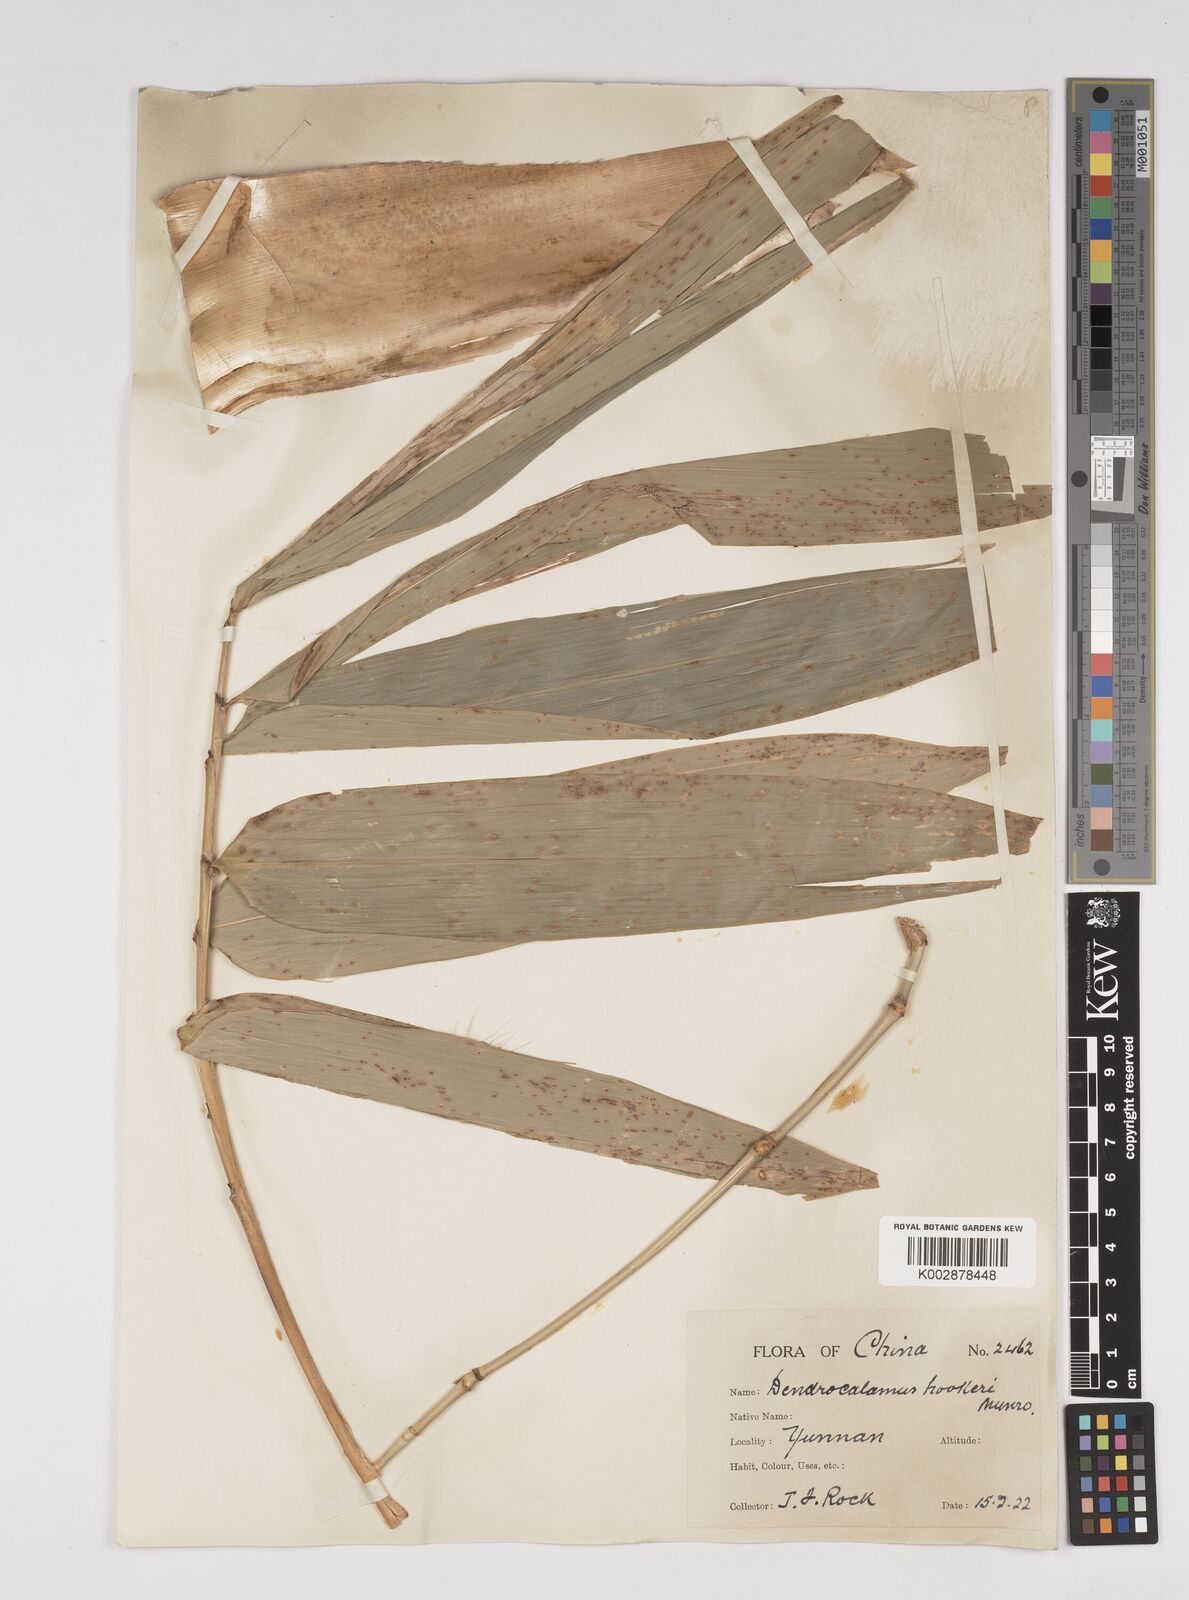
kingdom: Plantae
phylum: Tracheophyta
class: Liliopsida
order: Poales
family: Poaceae
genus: Dendrocalamus
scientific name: Dendrocalamus hookeri
